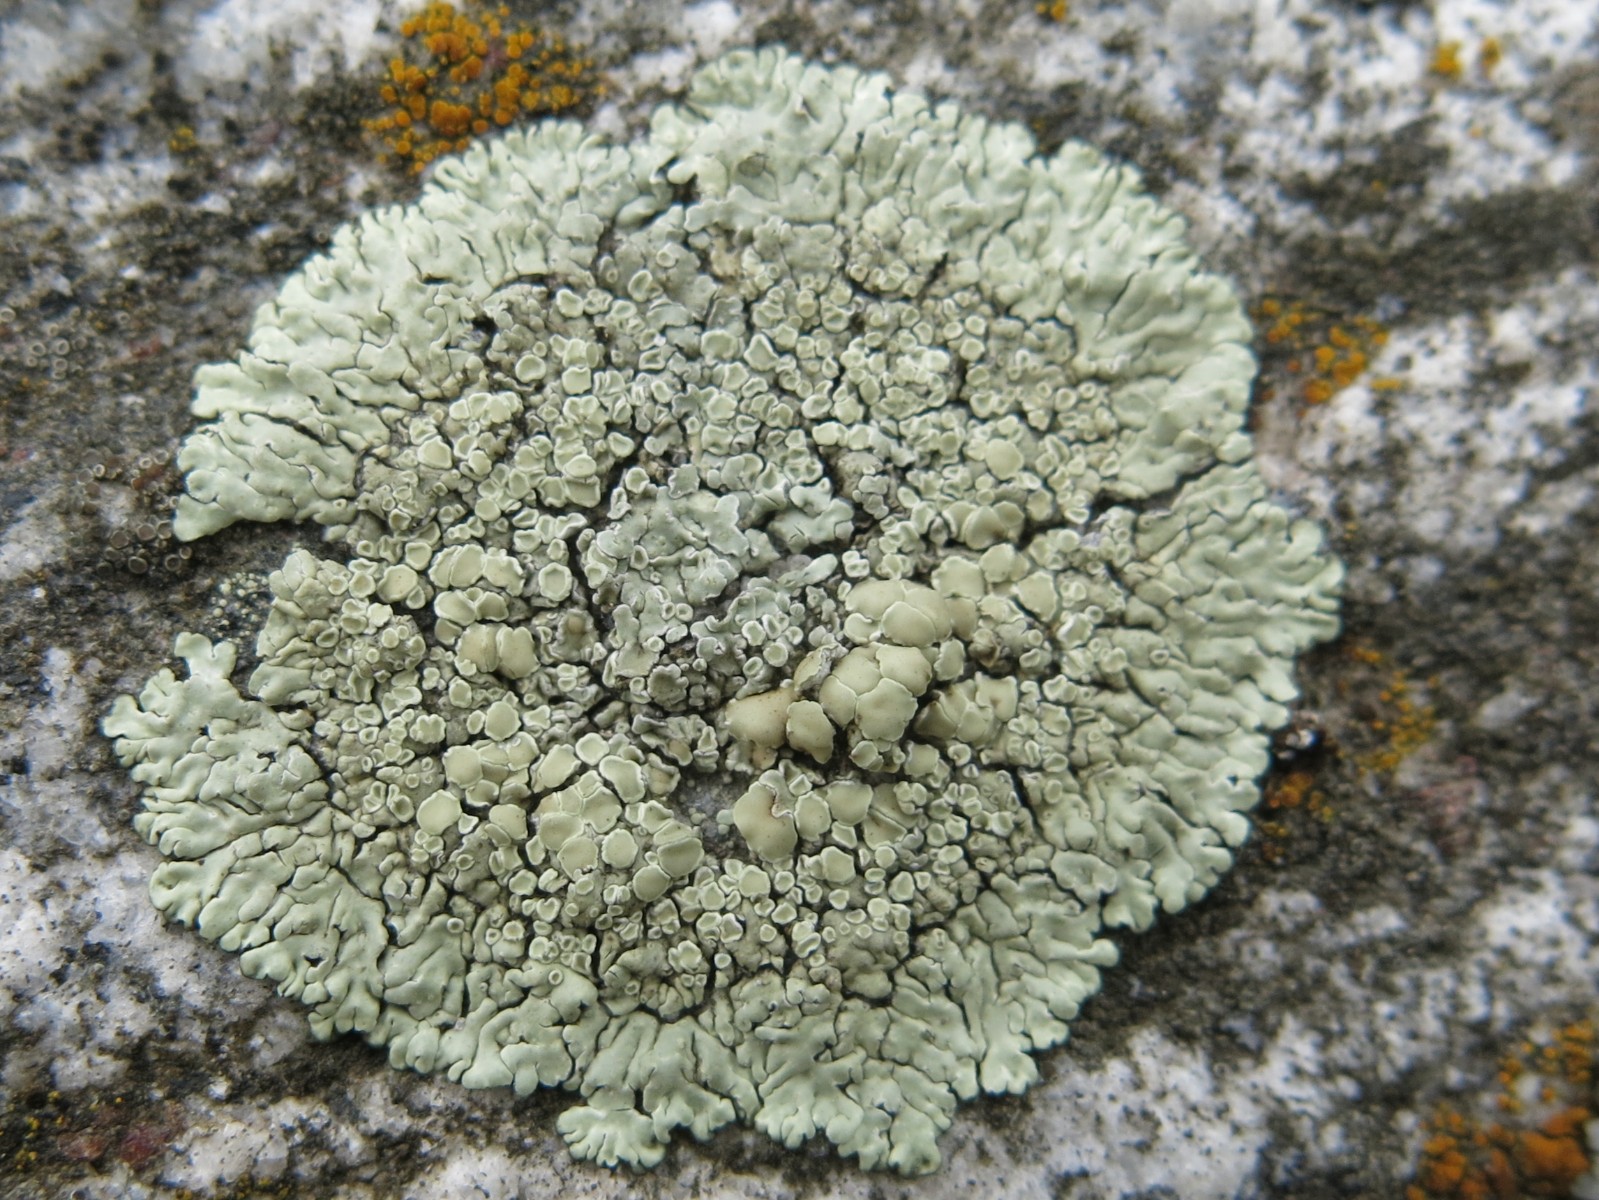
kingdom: Fungi
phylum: Ascomycota
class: Lecanoromycetes
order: Lecanorales
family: Lecanoraceae
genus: Protoparmeliopsis
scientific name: Protoparmeliopsis muralis
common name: randfliget kantskivelav
